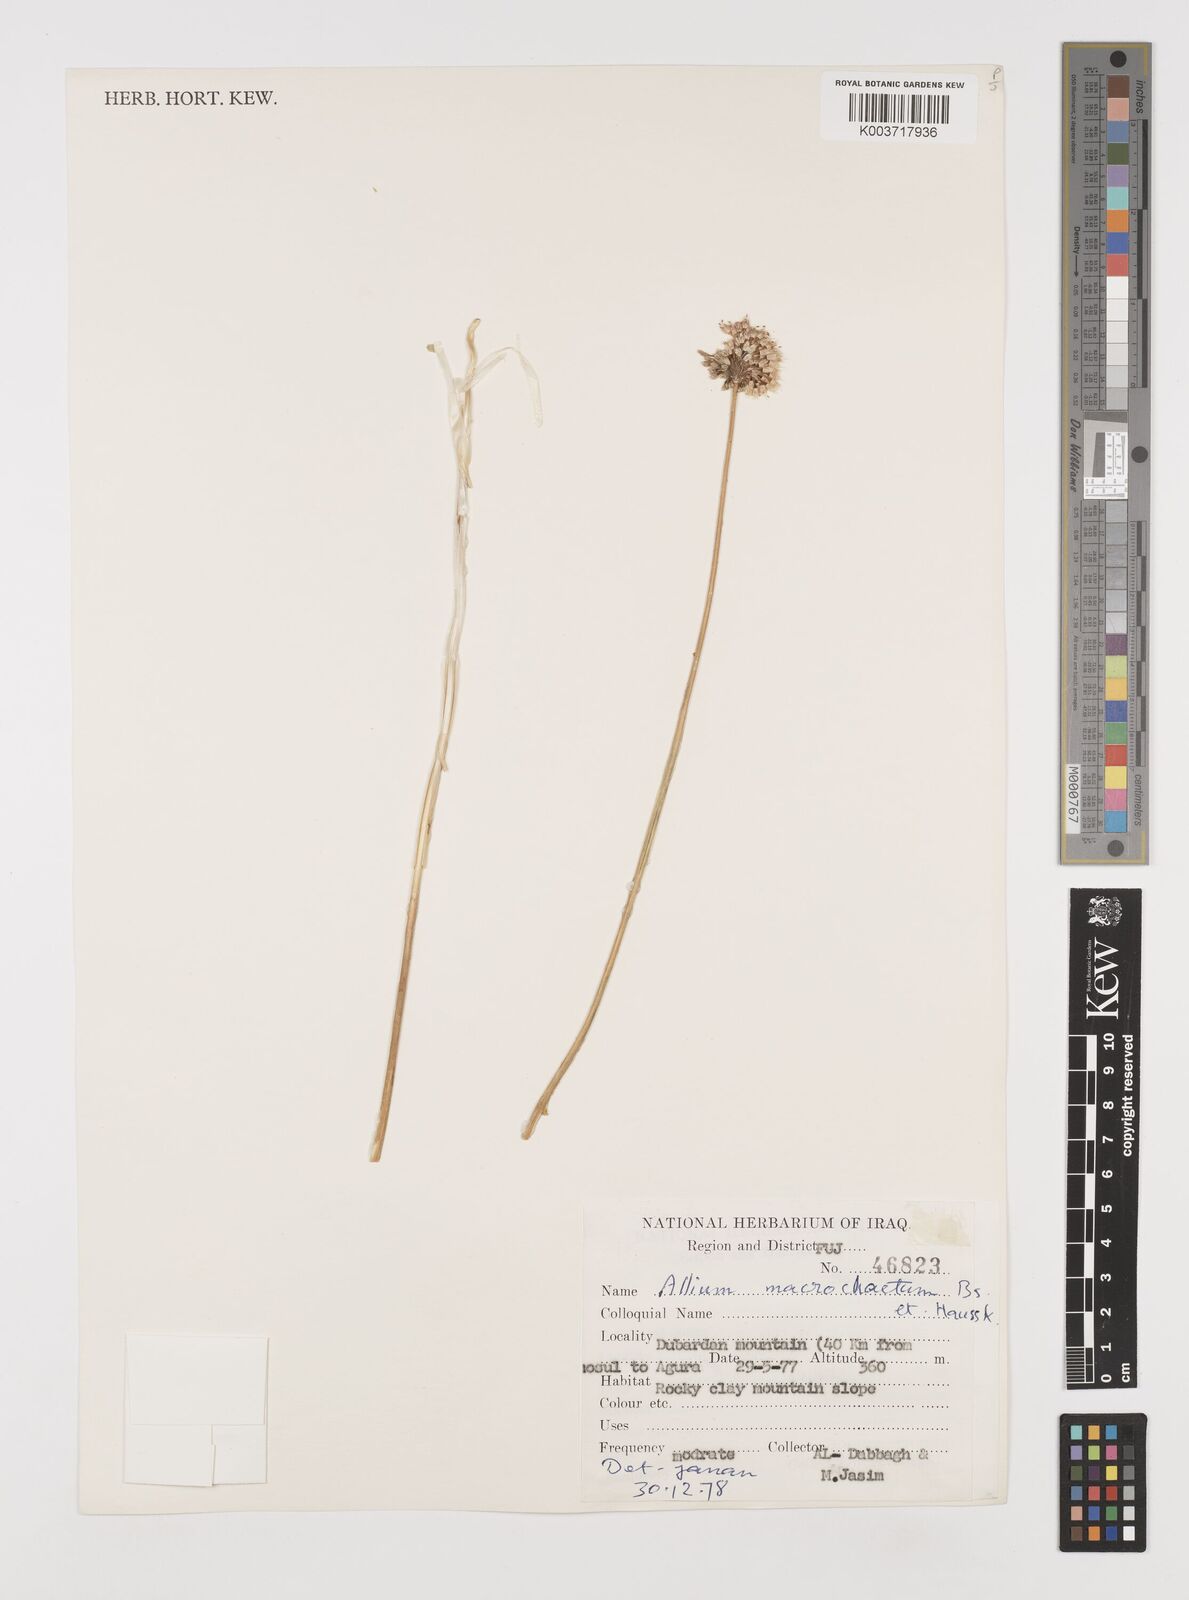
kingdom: Plantae
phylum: Tracheophyta
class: Liliopsida
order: Asparagales
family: Amaryllidaceae
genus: Allium
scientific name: Allium macrochaetum
